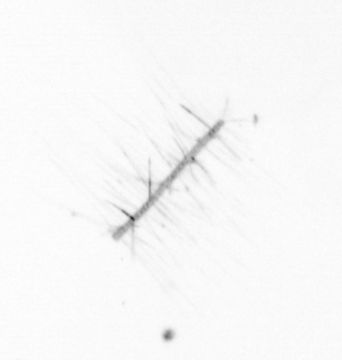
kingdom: Chromista
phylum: Ochrophyta
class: Bacillariophyceae
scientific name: Bacillariophyceae
